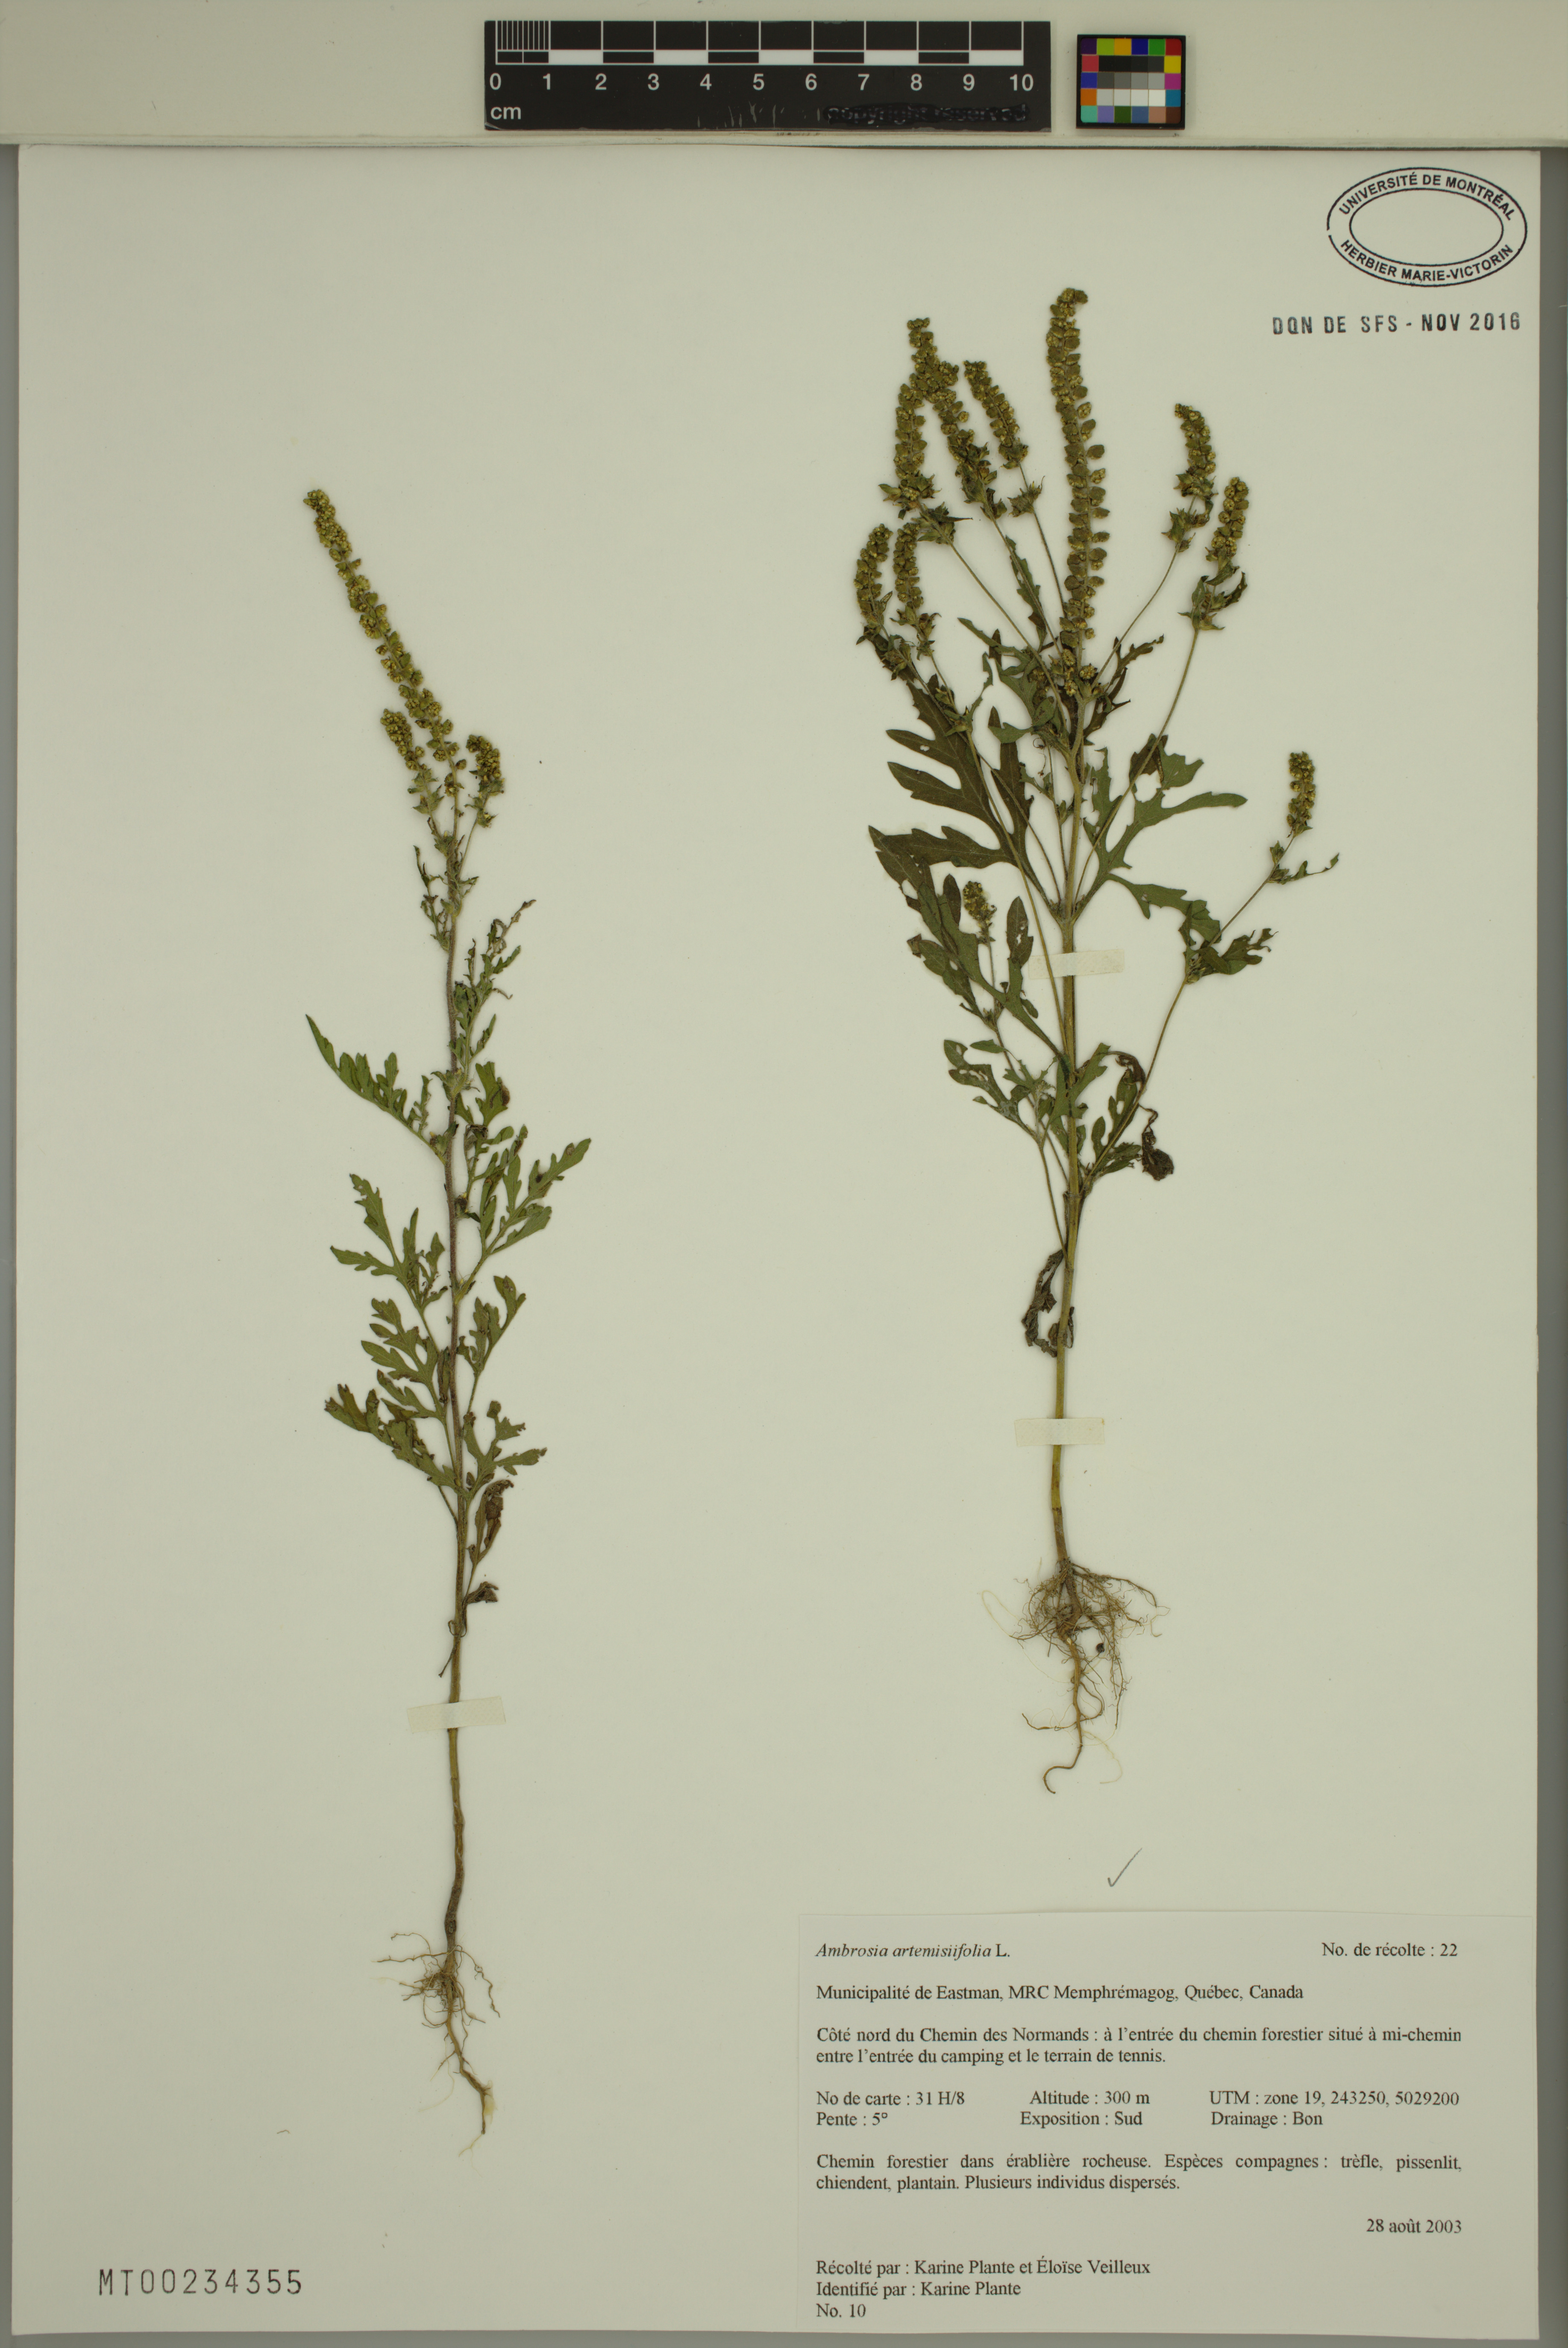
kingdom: Plantae
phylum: Tracheophyta
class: Magnoliopsida
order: Asterales
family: Asteraceae
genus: Ambrosia
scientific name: Ambrosia artemisiifolia
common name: Annual ragweed
